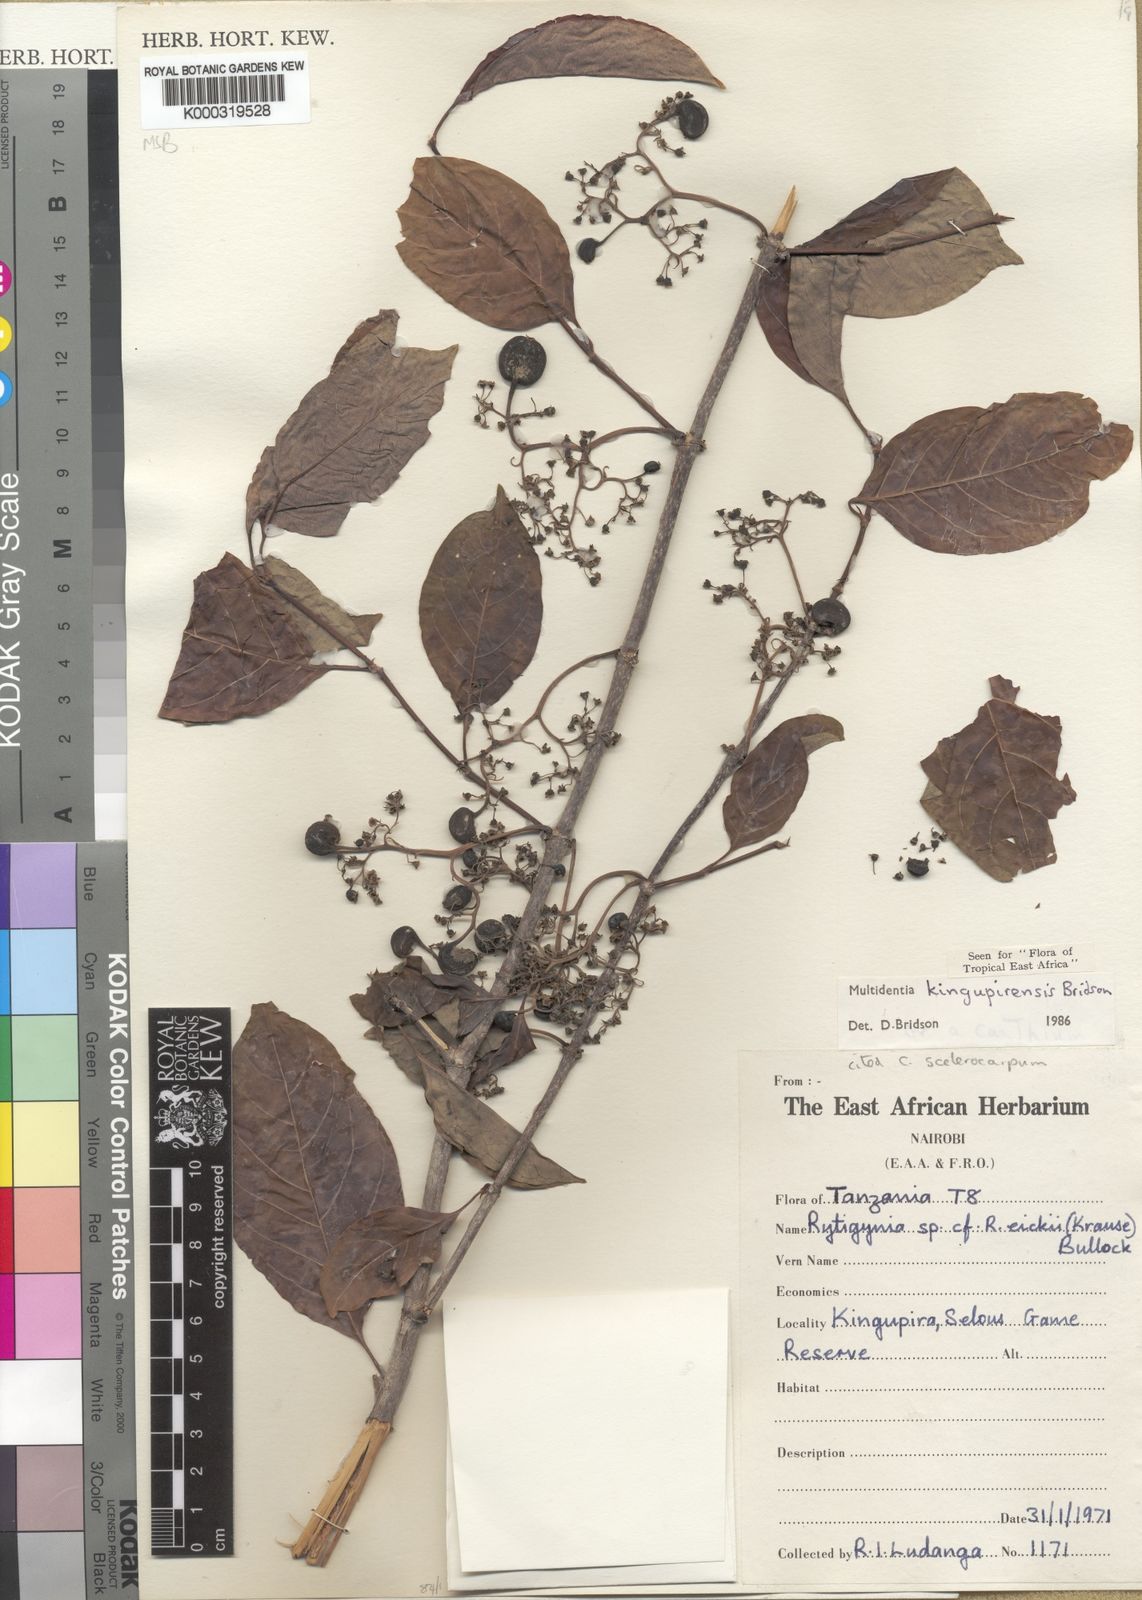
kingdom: Plantae
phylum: Tracheophyta
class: Magnoliopsida
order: Gentianales
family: Rubiaceae
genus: Multidentia
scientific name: Multidentia kingupirensis
